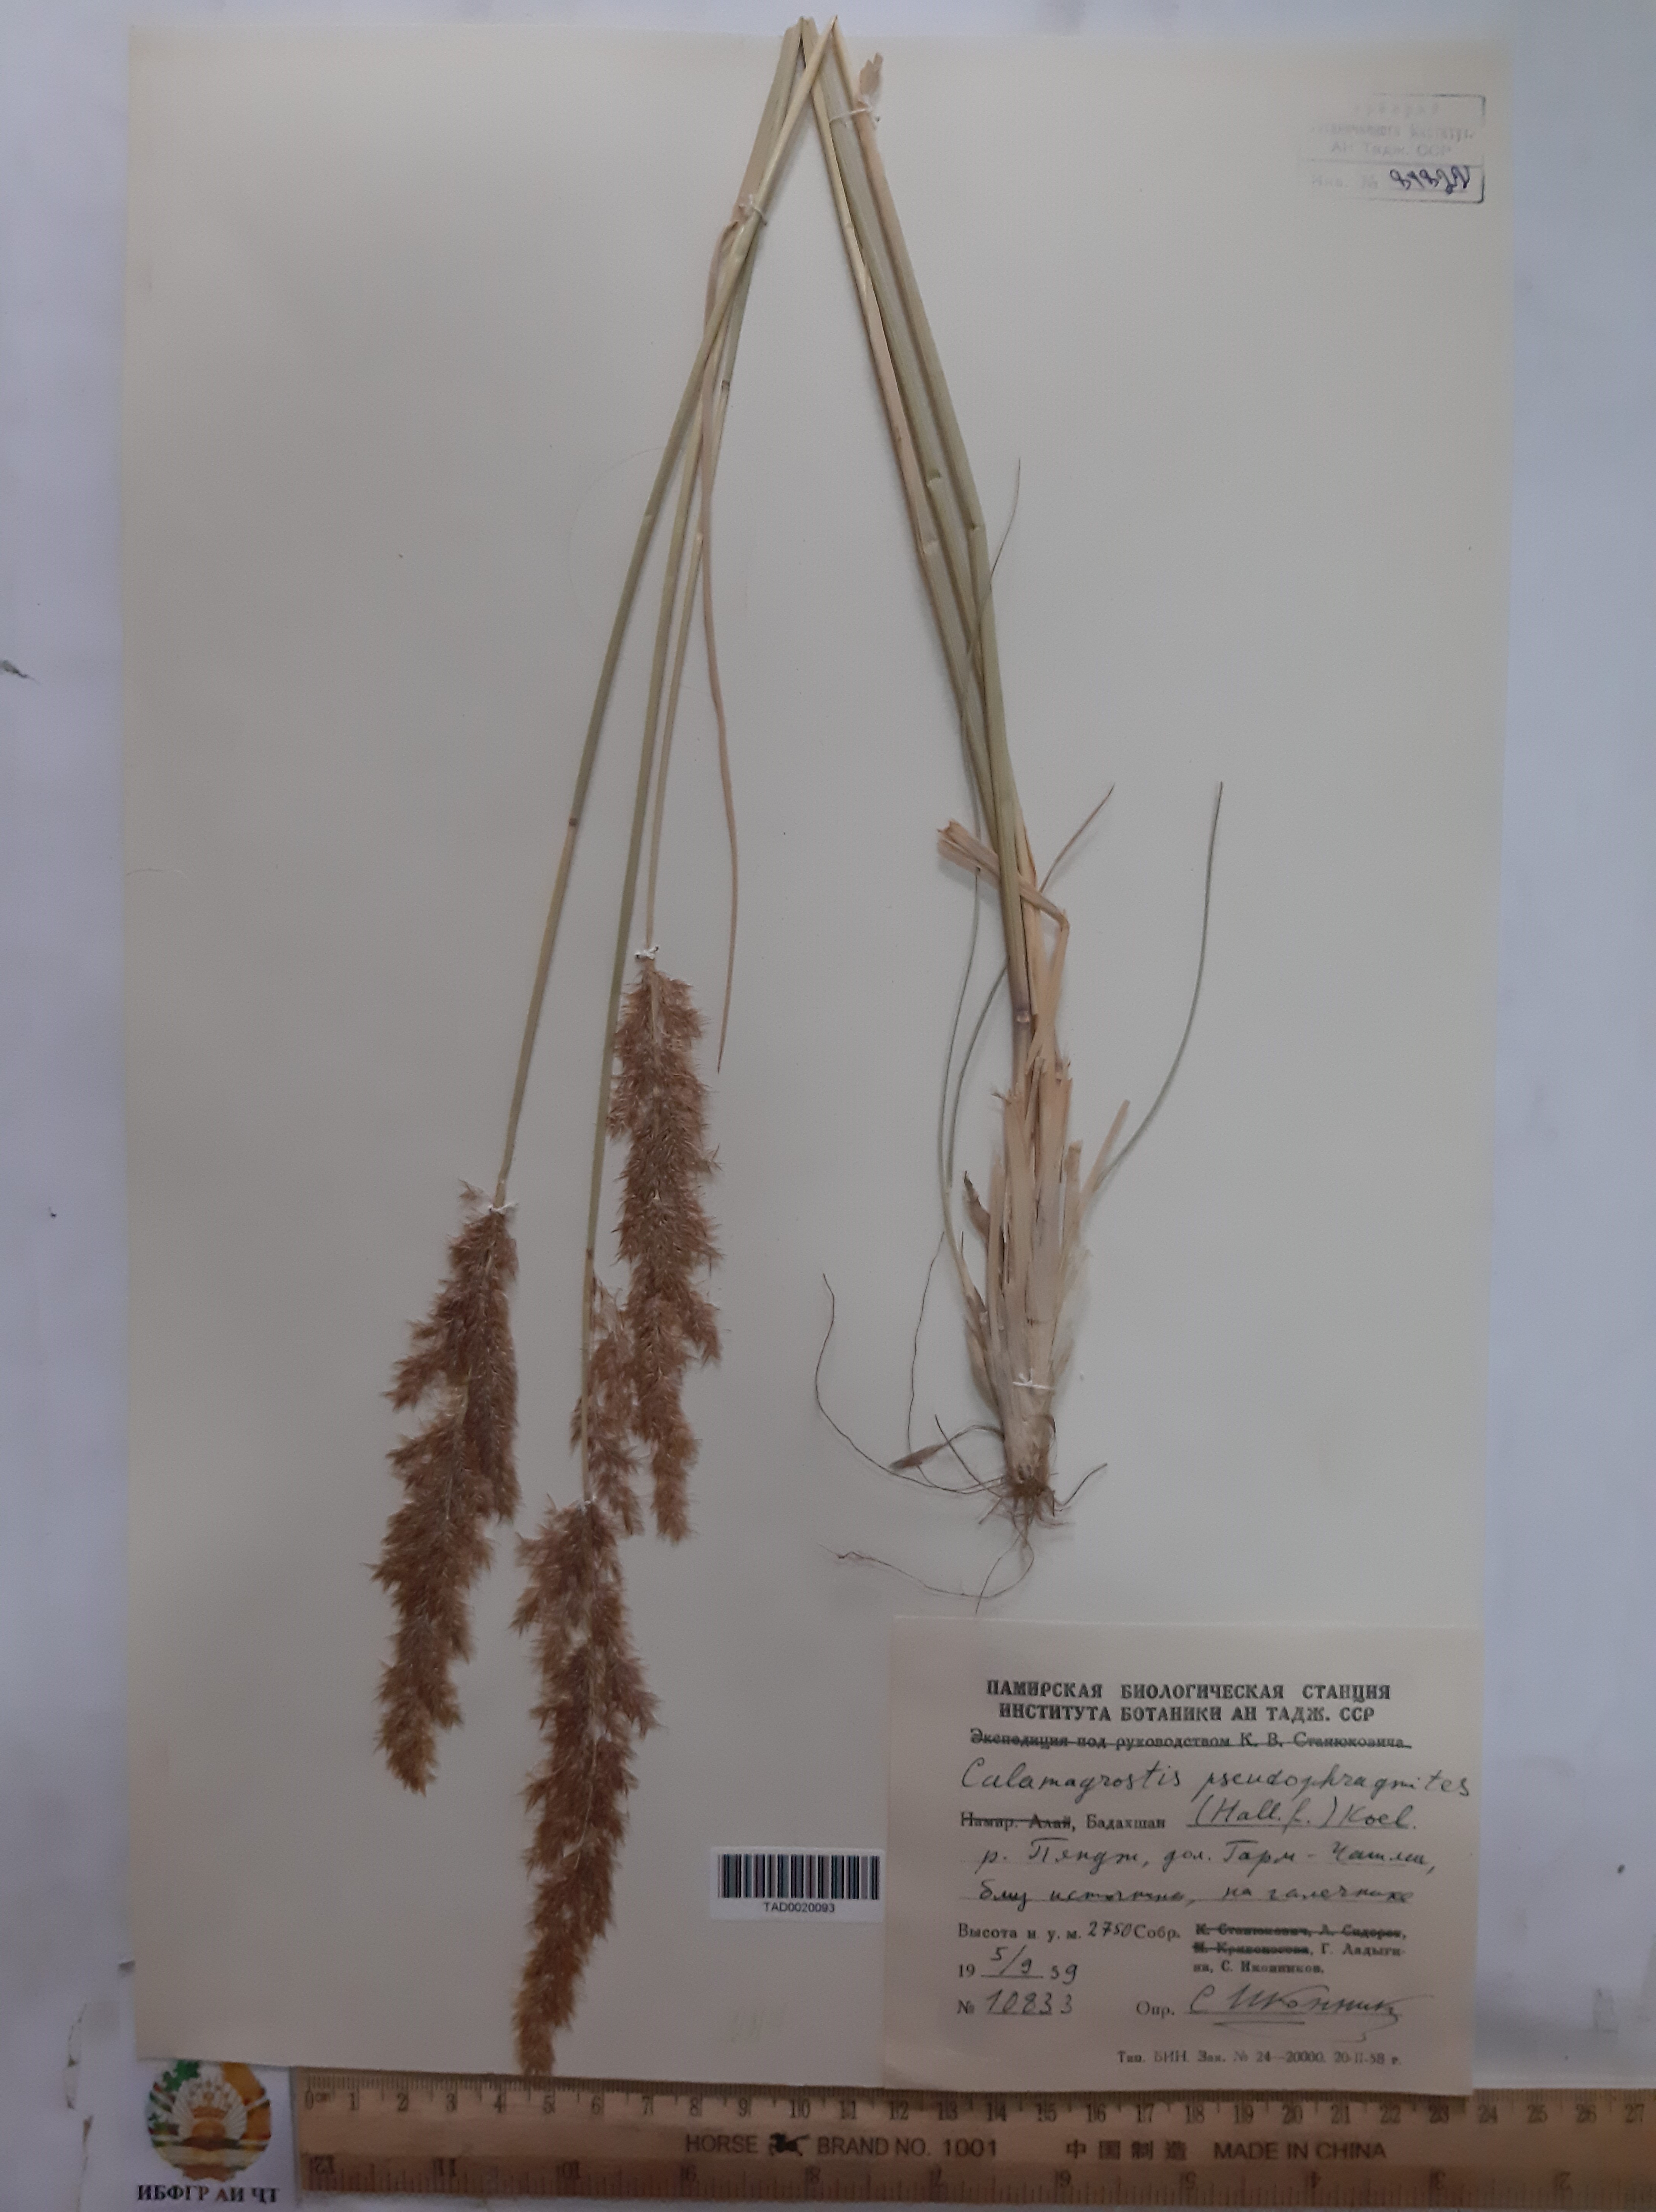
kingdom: Plantae
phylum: Tracheophyta
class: Liliopsida
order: Poales
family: Poaceae
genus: Calamagrostis
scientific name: Calamagrostis pseudophragmites
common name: Coastal small-reed
